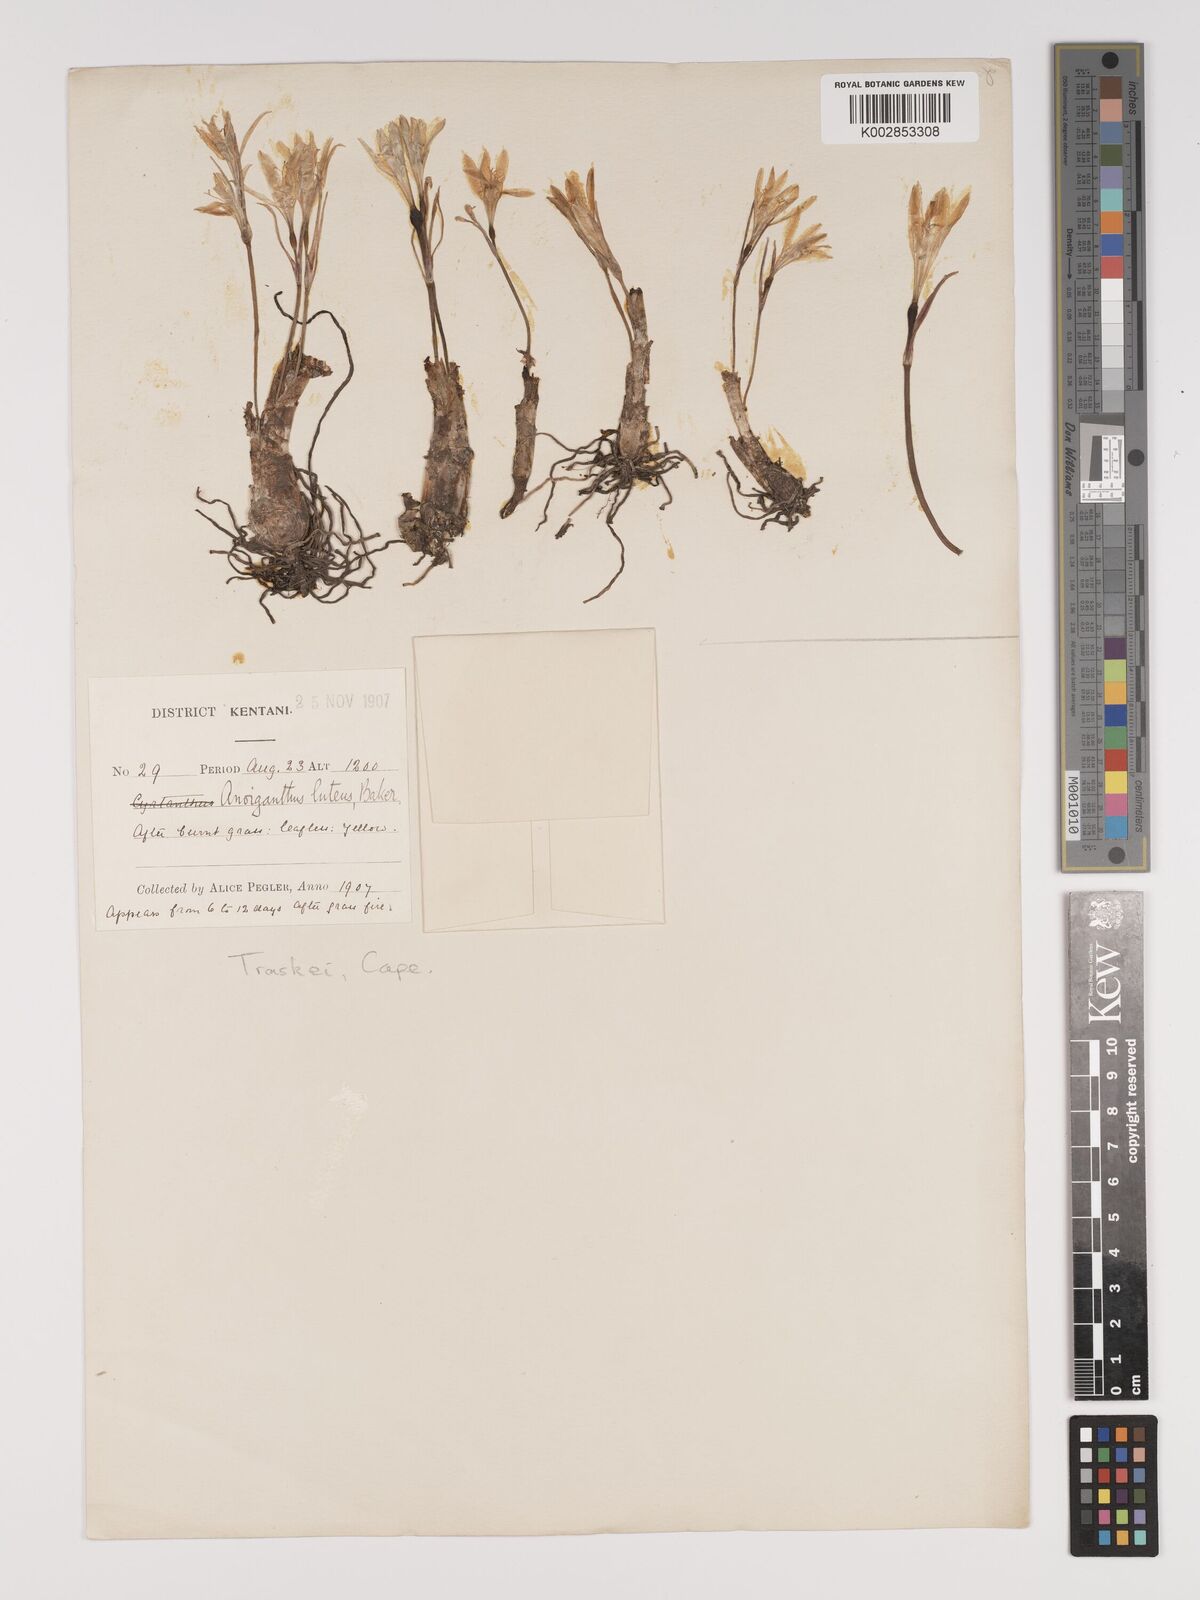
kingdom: Plantae
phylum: Tracheophyta
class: Liliopsida
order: Asparagales
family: Amaryllidaceae
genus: Cyrtanthus
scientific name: Cyrtanthus breviflorus
